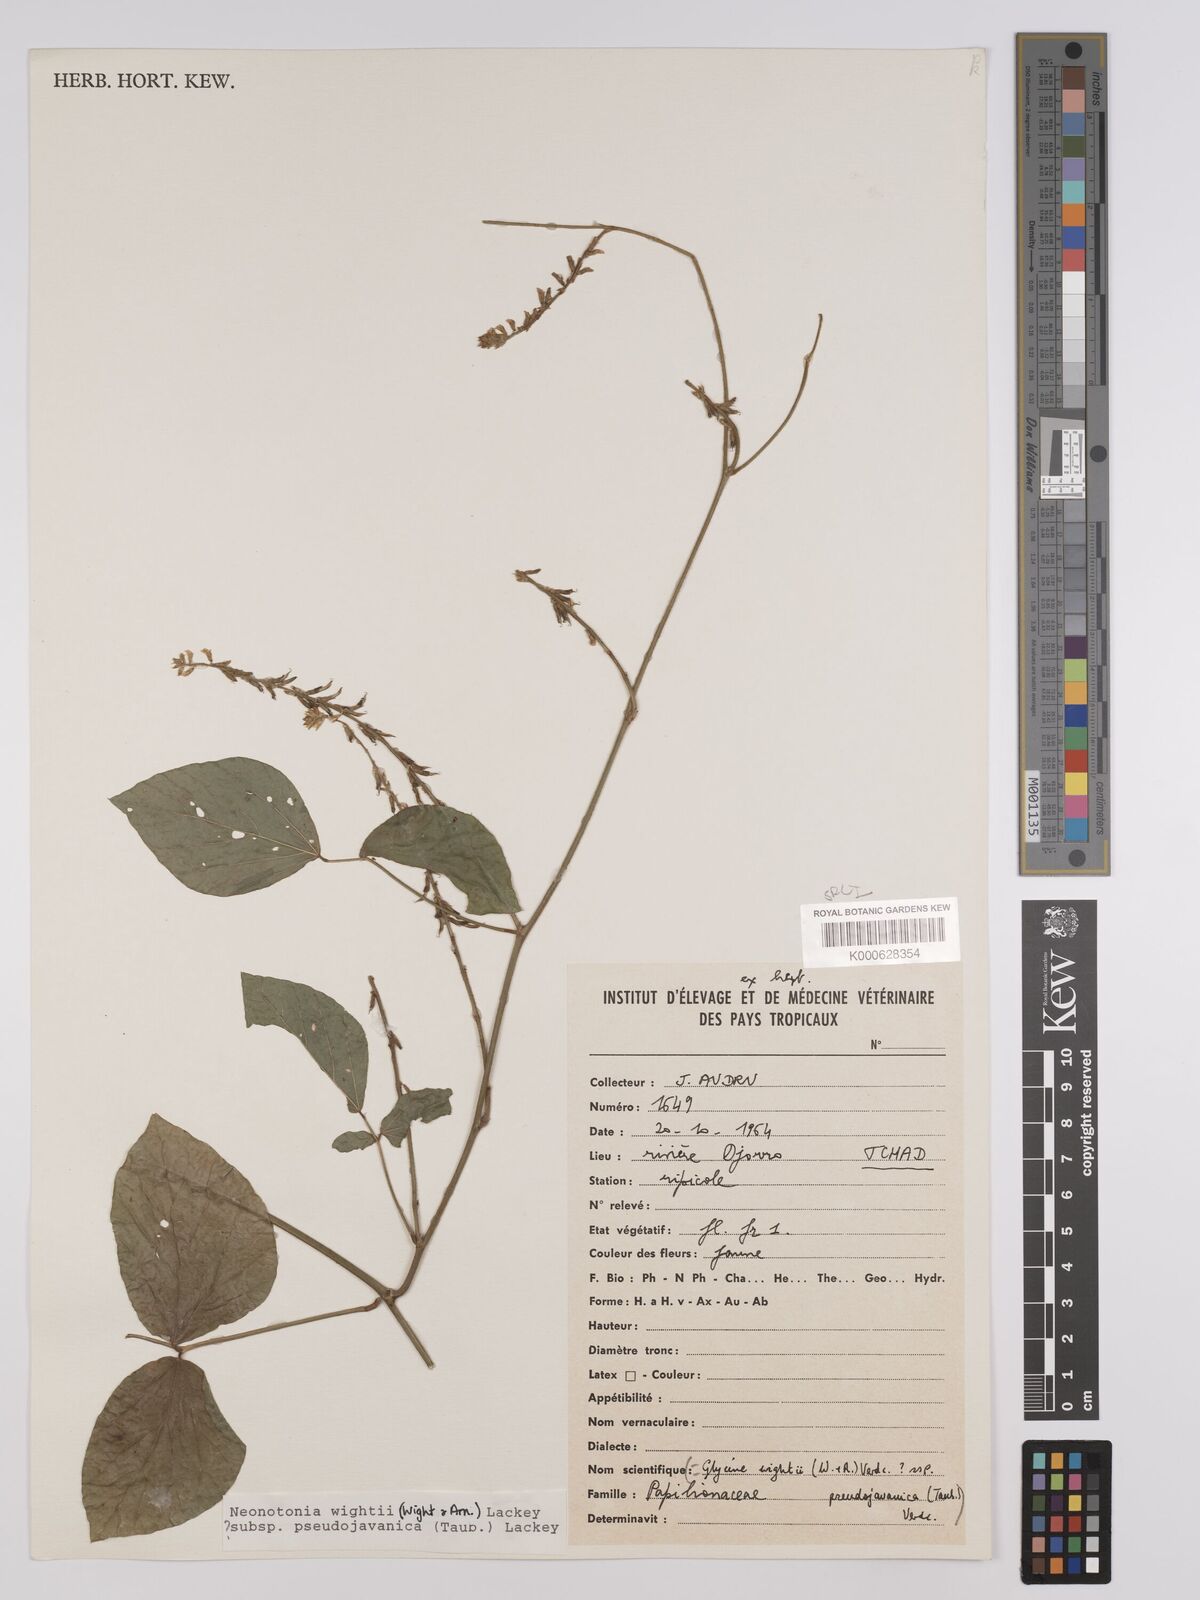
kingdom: Plantae
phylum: Tracheophyta
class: Magnoliopsida
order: Fabales
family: Fabaceae
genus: Neonotonia
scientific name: Neonotonia wightii
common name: Perennial soybean
